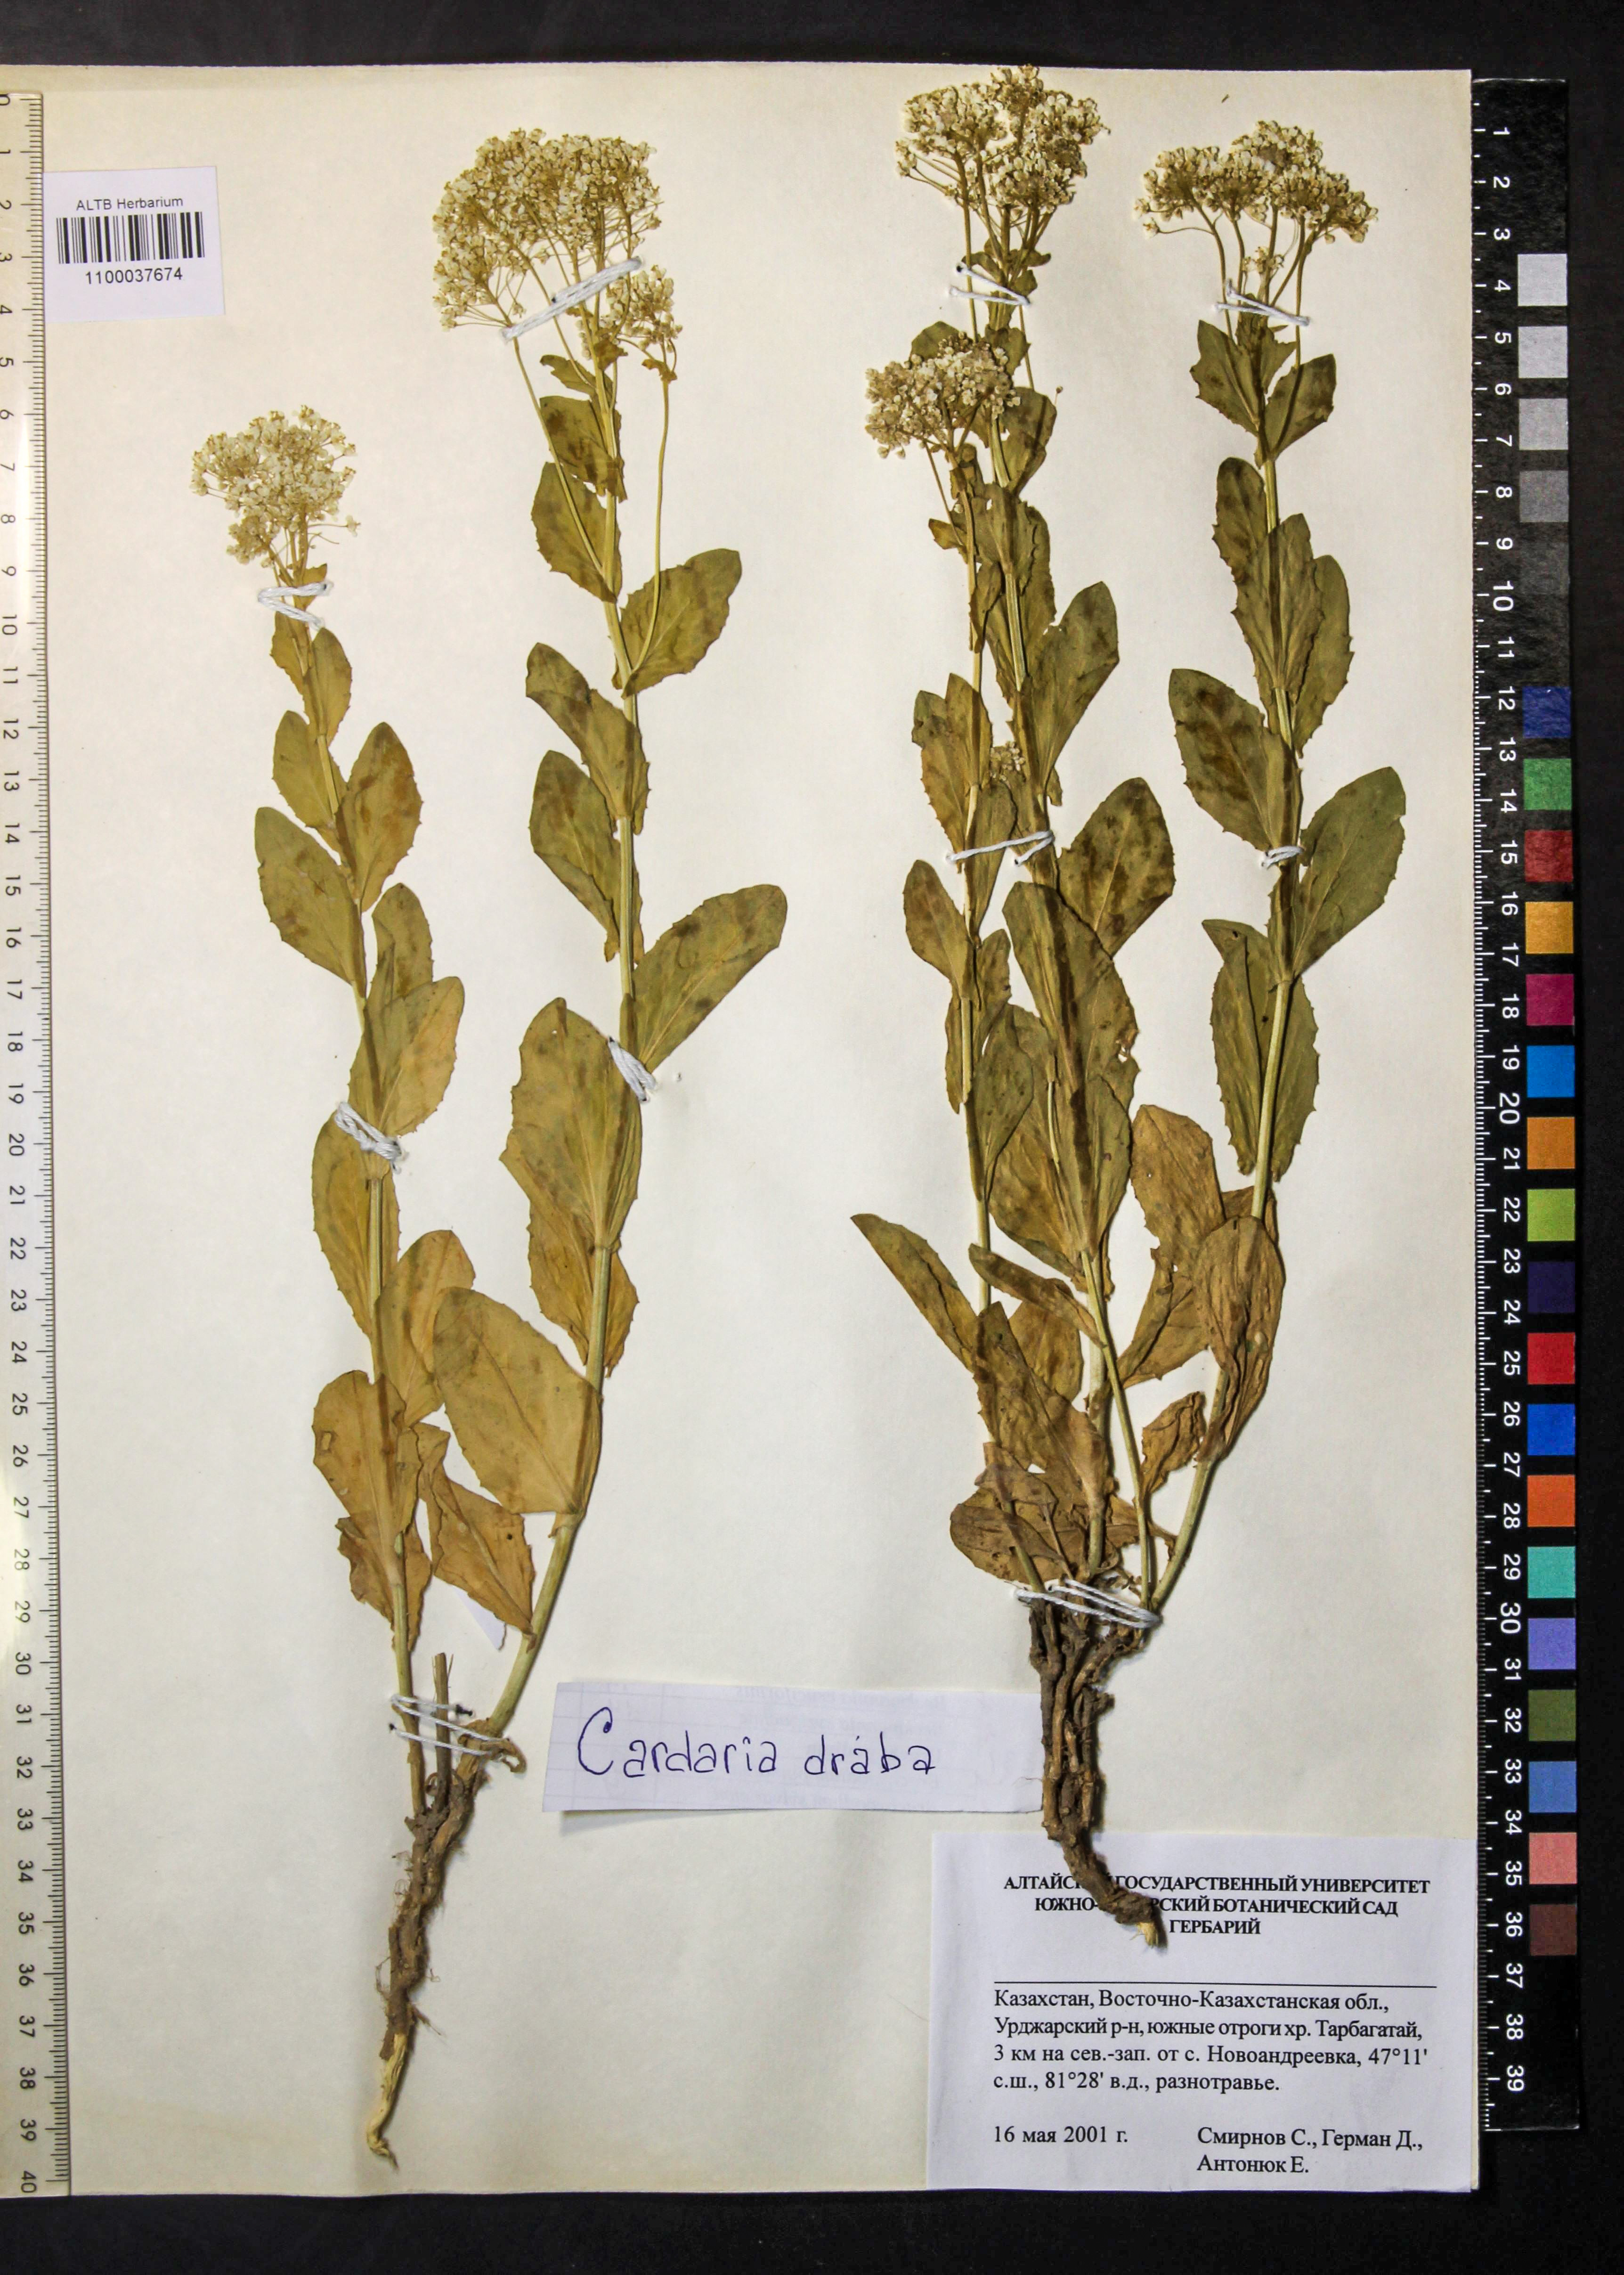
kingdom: Plantae
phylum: Tracheophyta
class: Magnoliopsida
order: Brassicales
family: Brassicaceae
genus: Lepidium
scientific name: Lepidium draba
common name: Hoary cress
